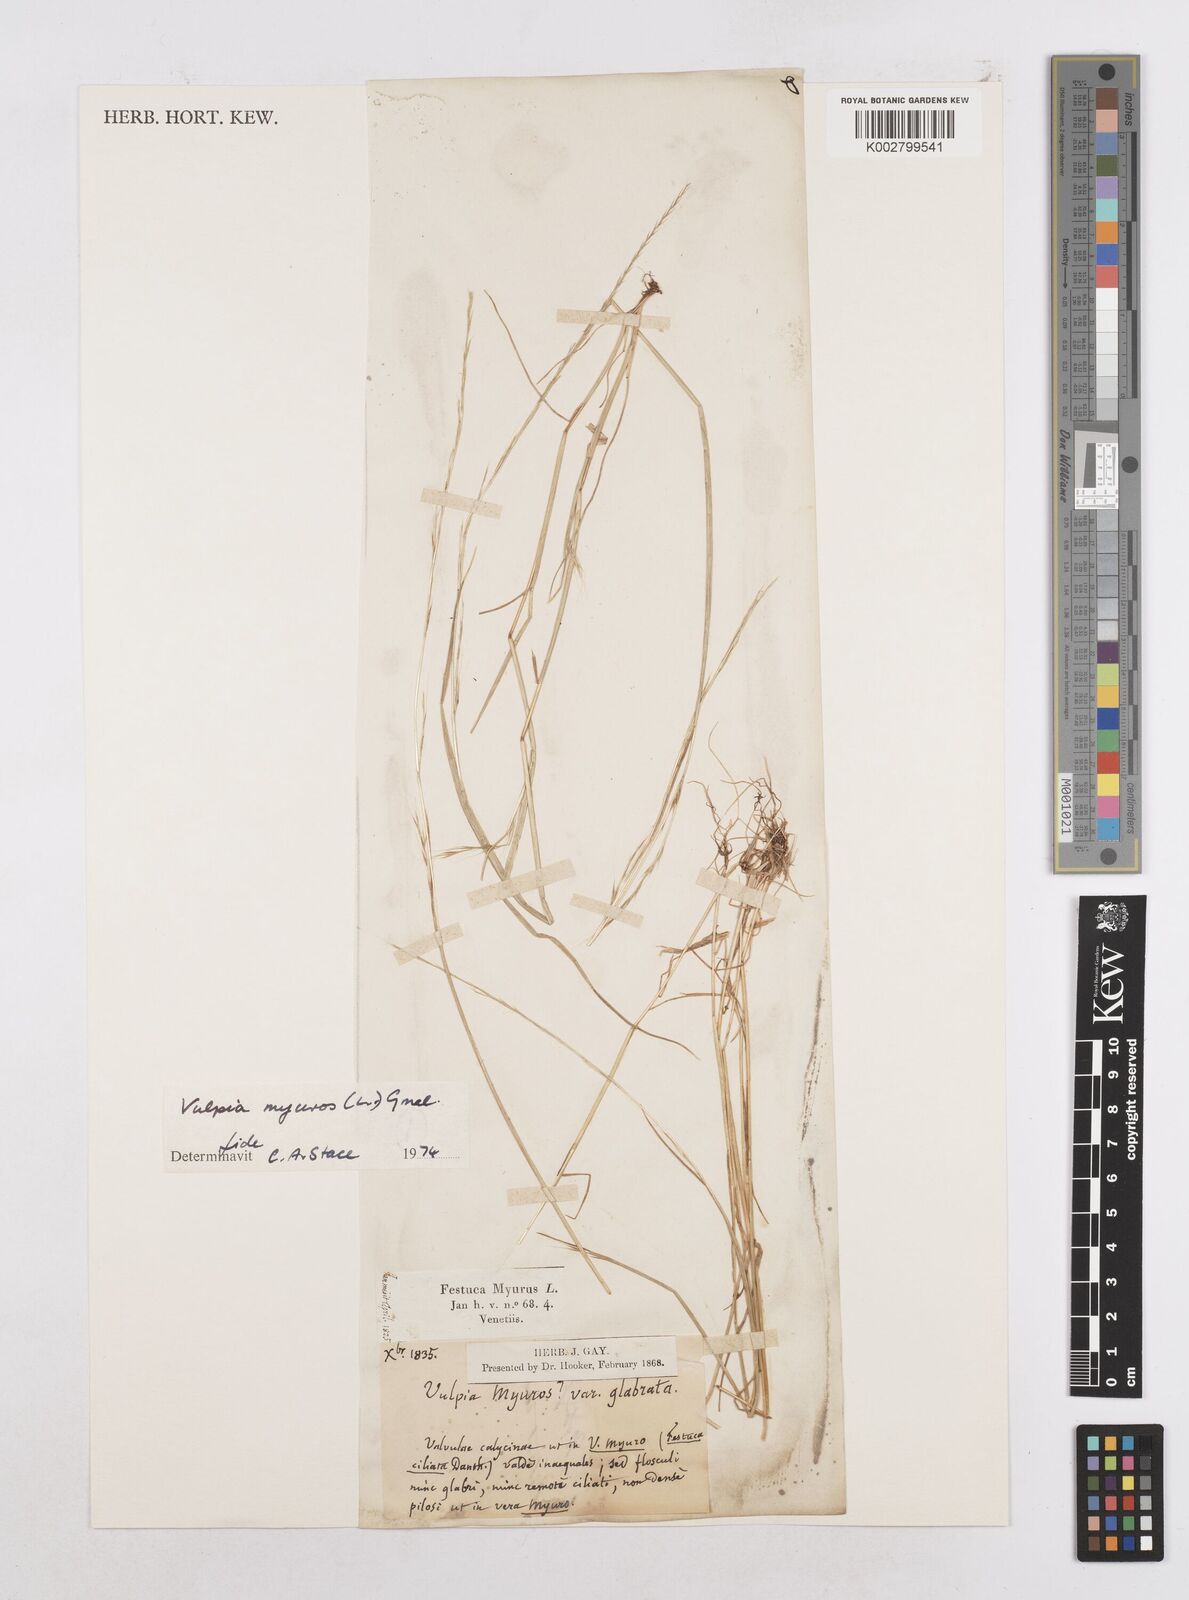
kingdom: Plantae
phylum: Tracheophyta
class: Liliopsida
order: Poales
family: Poaceae
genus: Festuca
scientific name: Festuca myuros
